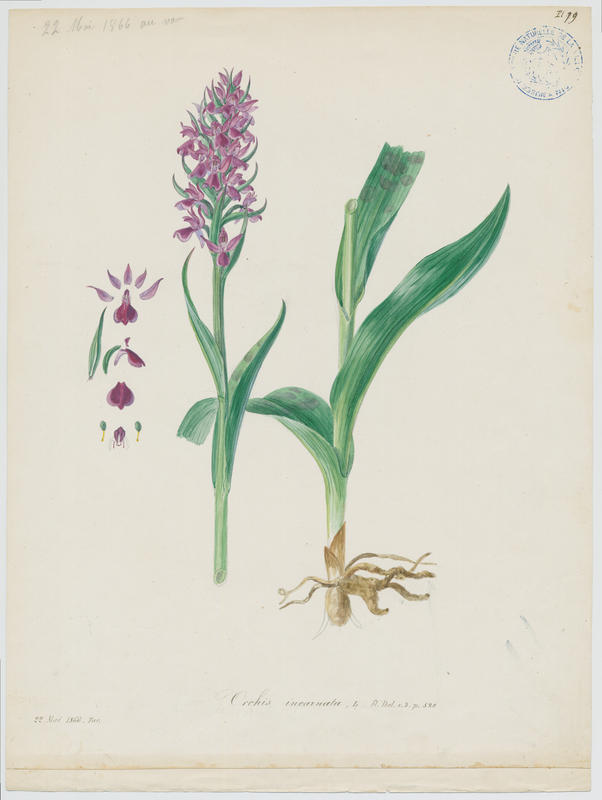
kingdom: Plantae
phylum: Tracheophyta
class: Liliopsida
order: Asparagales
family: Orchidaceae
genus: Dactylorhiza
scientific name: Dactylorhiza incarnata
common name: Early marsh-orchid
